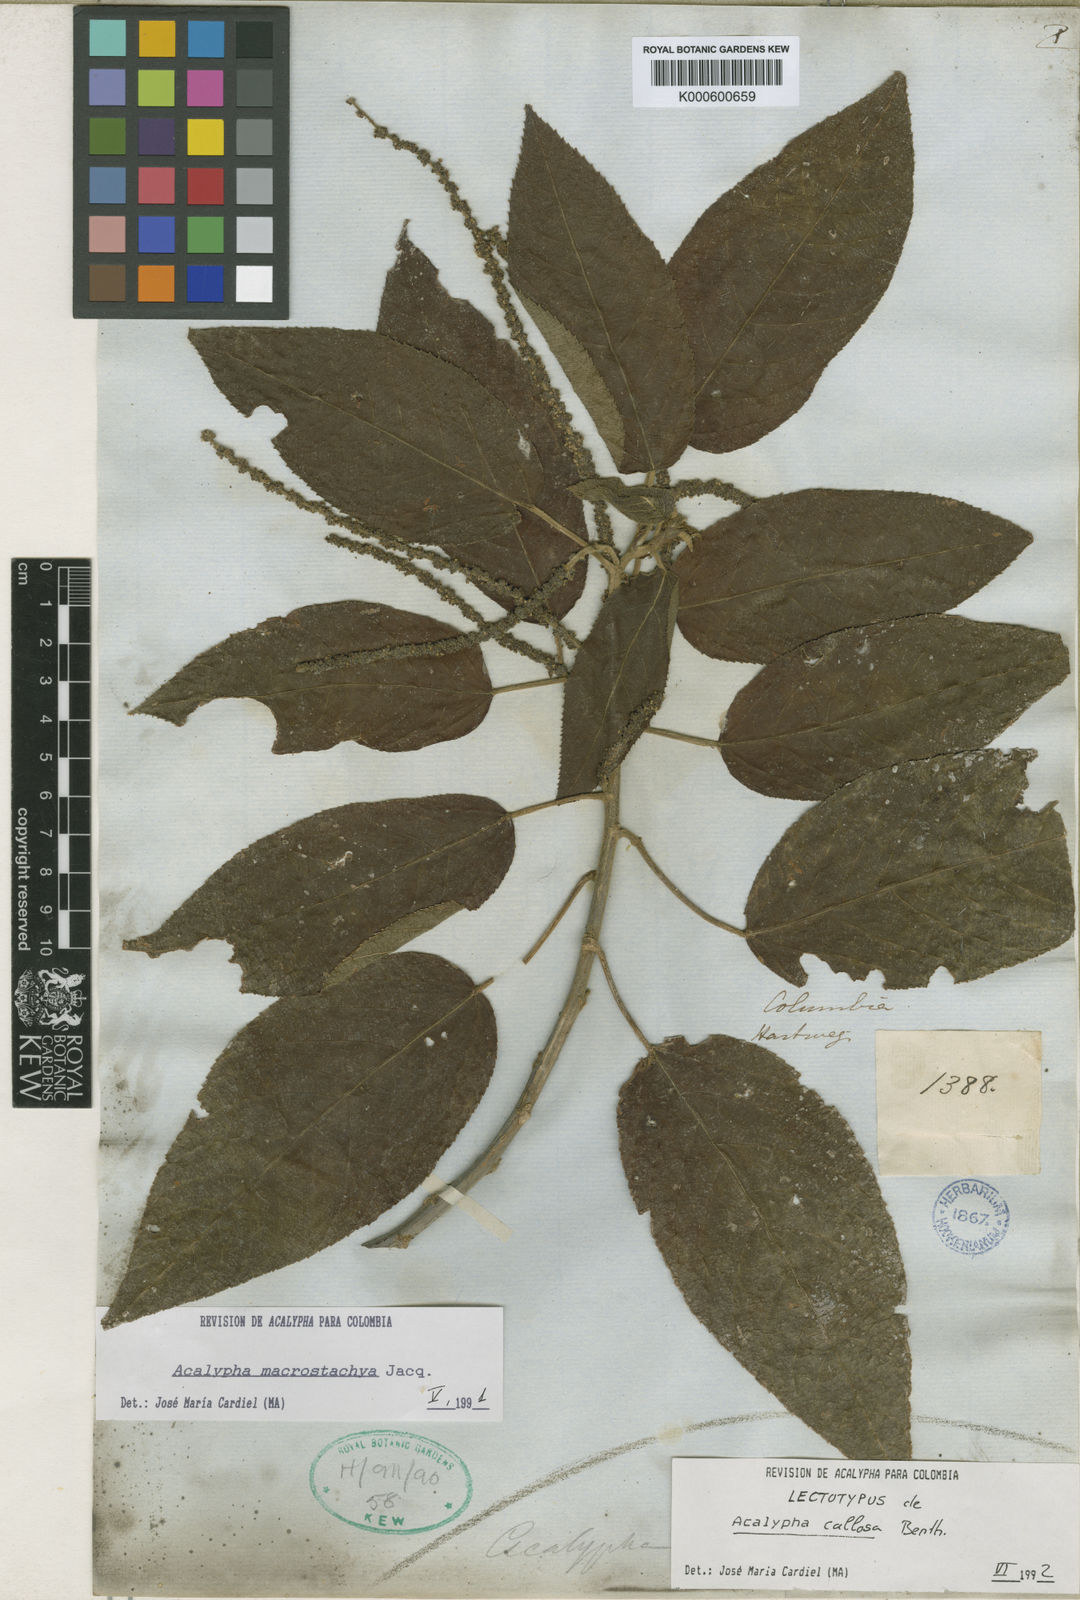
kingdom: Plantae
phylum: Tracheophyta
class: Magnoliopsida
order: Malpighiales
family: Euphorbiaceae
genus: Acalypha
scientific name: Acalypha macrostachya
